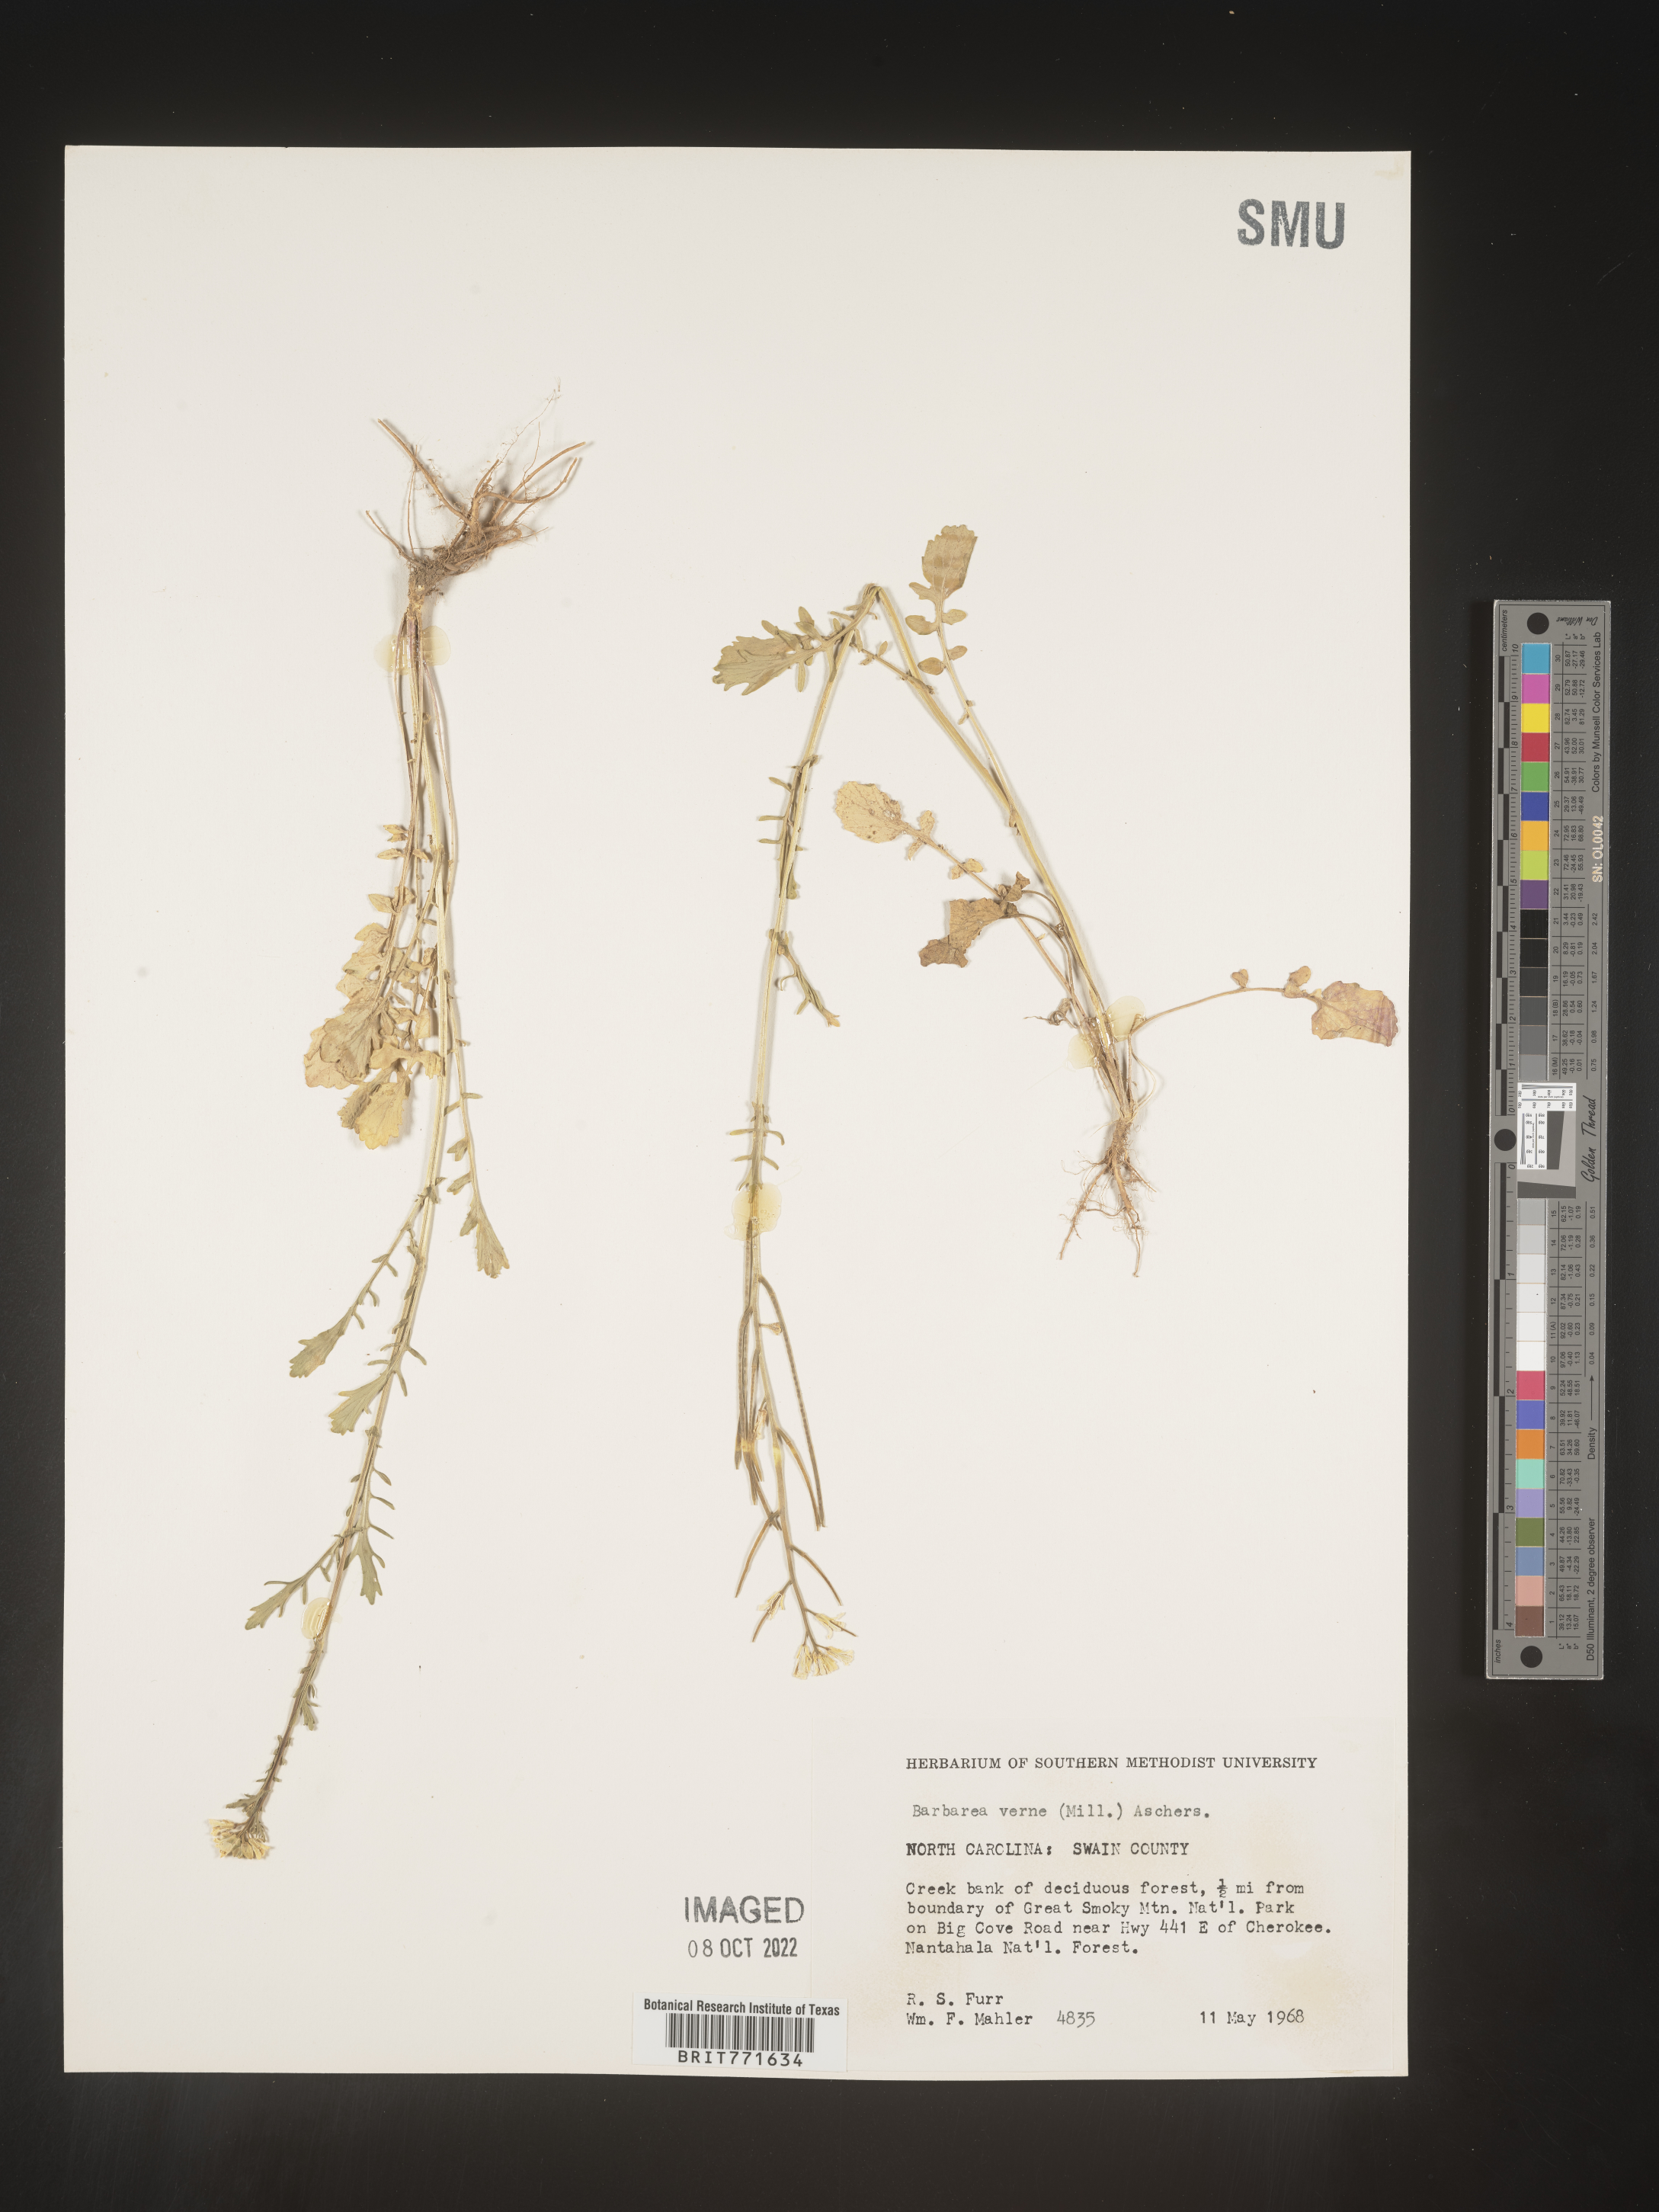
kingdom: Plantae
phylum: Tracheophyta
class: Magnoliopsida
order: Brassicales
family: Brassicaceae
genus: Barbarea
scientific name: Barbarea verna
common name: American cress
